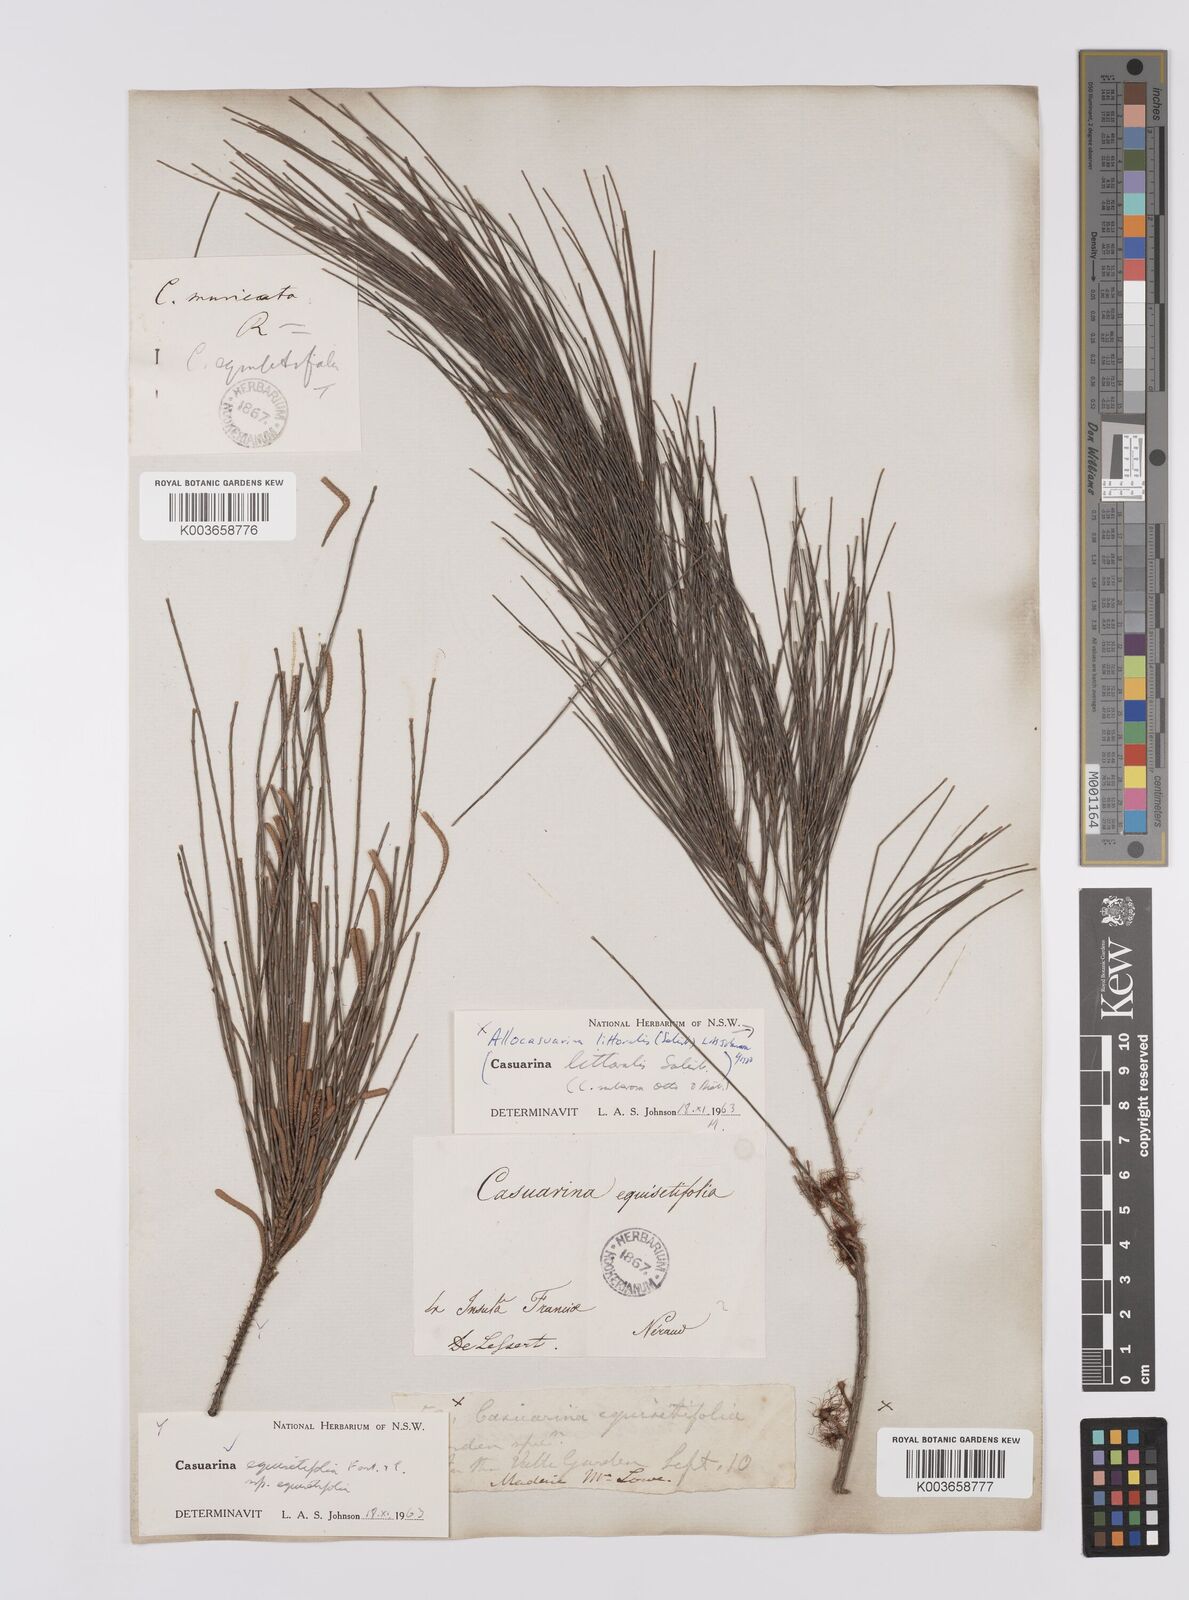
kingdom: Plantae
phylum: Tracheophyta
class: Magnoliopsida
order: Fagales
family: Casuarinaceae
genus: Allocasuarina
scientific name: Allocasuarina littoralis
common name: Black she-oak
